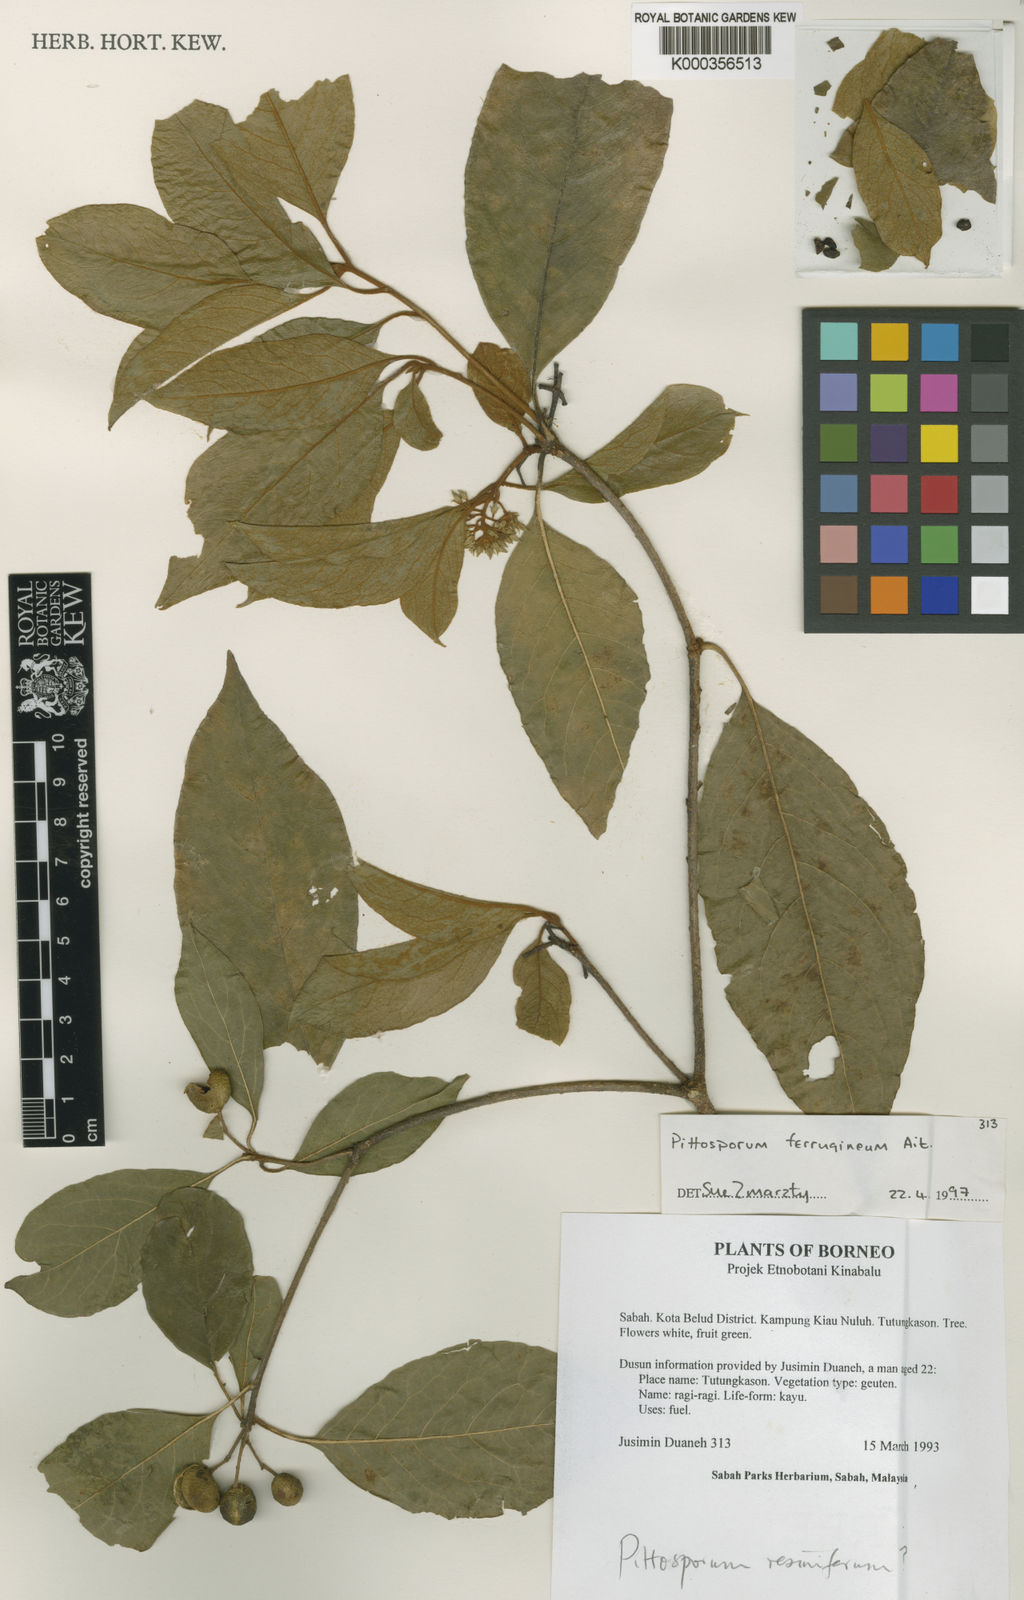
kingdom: Plantae
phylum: Tracheophyta
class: Magnoliopsida
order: Apiales
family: Pittosporaceae
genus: Pittosporum
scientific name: Pittosporum ferrugineum
